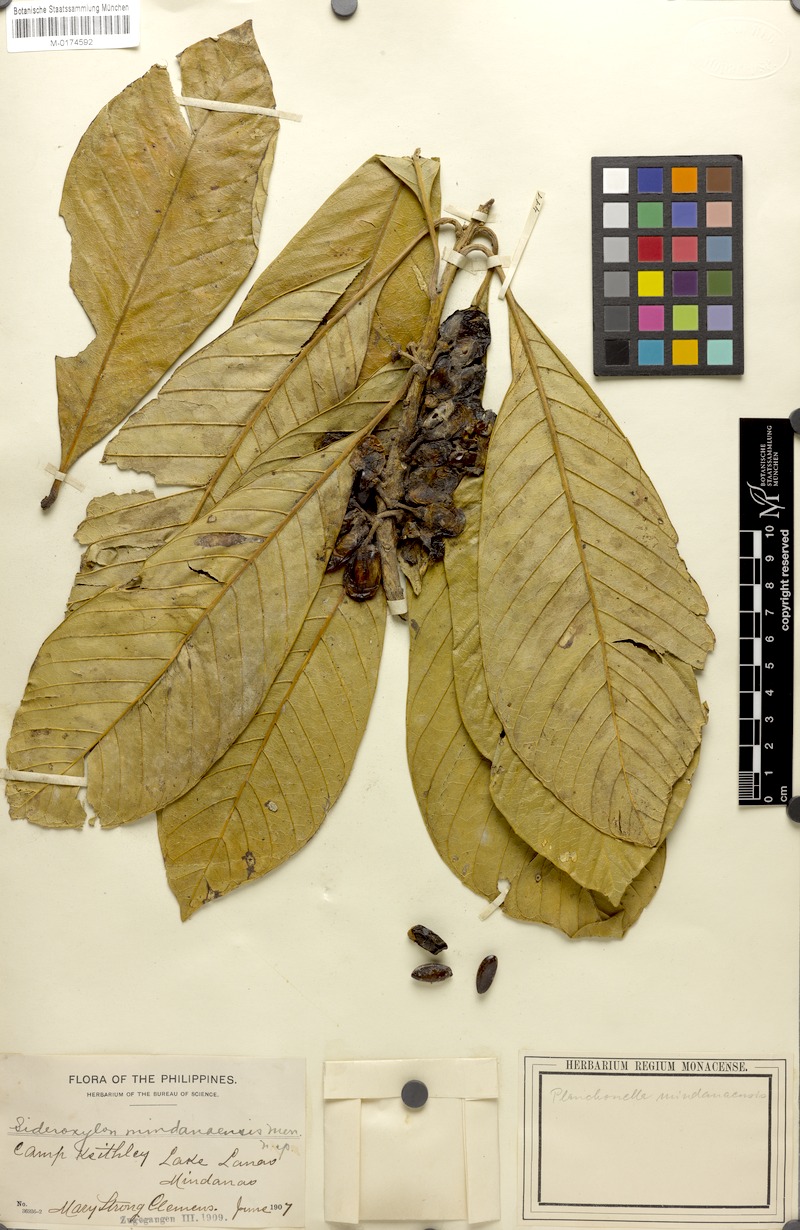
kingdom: Plantae
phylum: Tracheophyta
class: Magnoliopsida
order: Ericales
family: Sapotaceae
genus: Planchonella
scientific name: Planchonella mindanaensis
